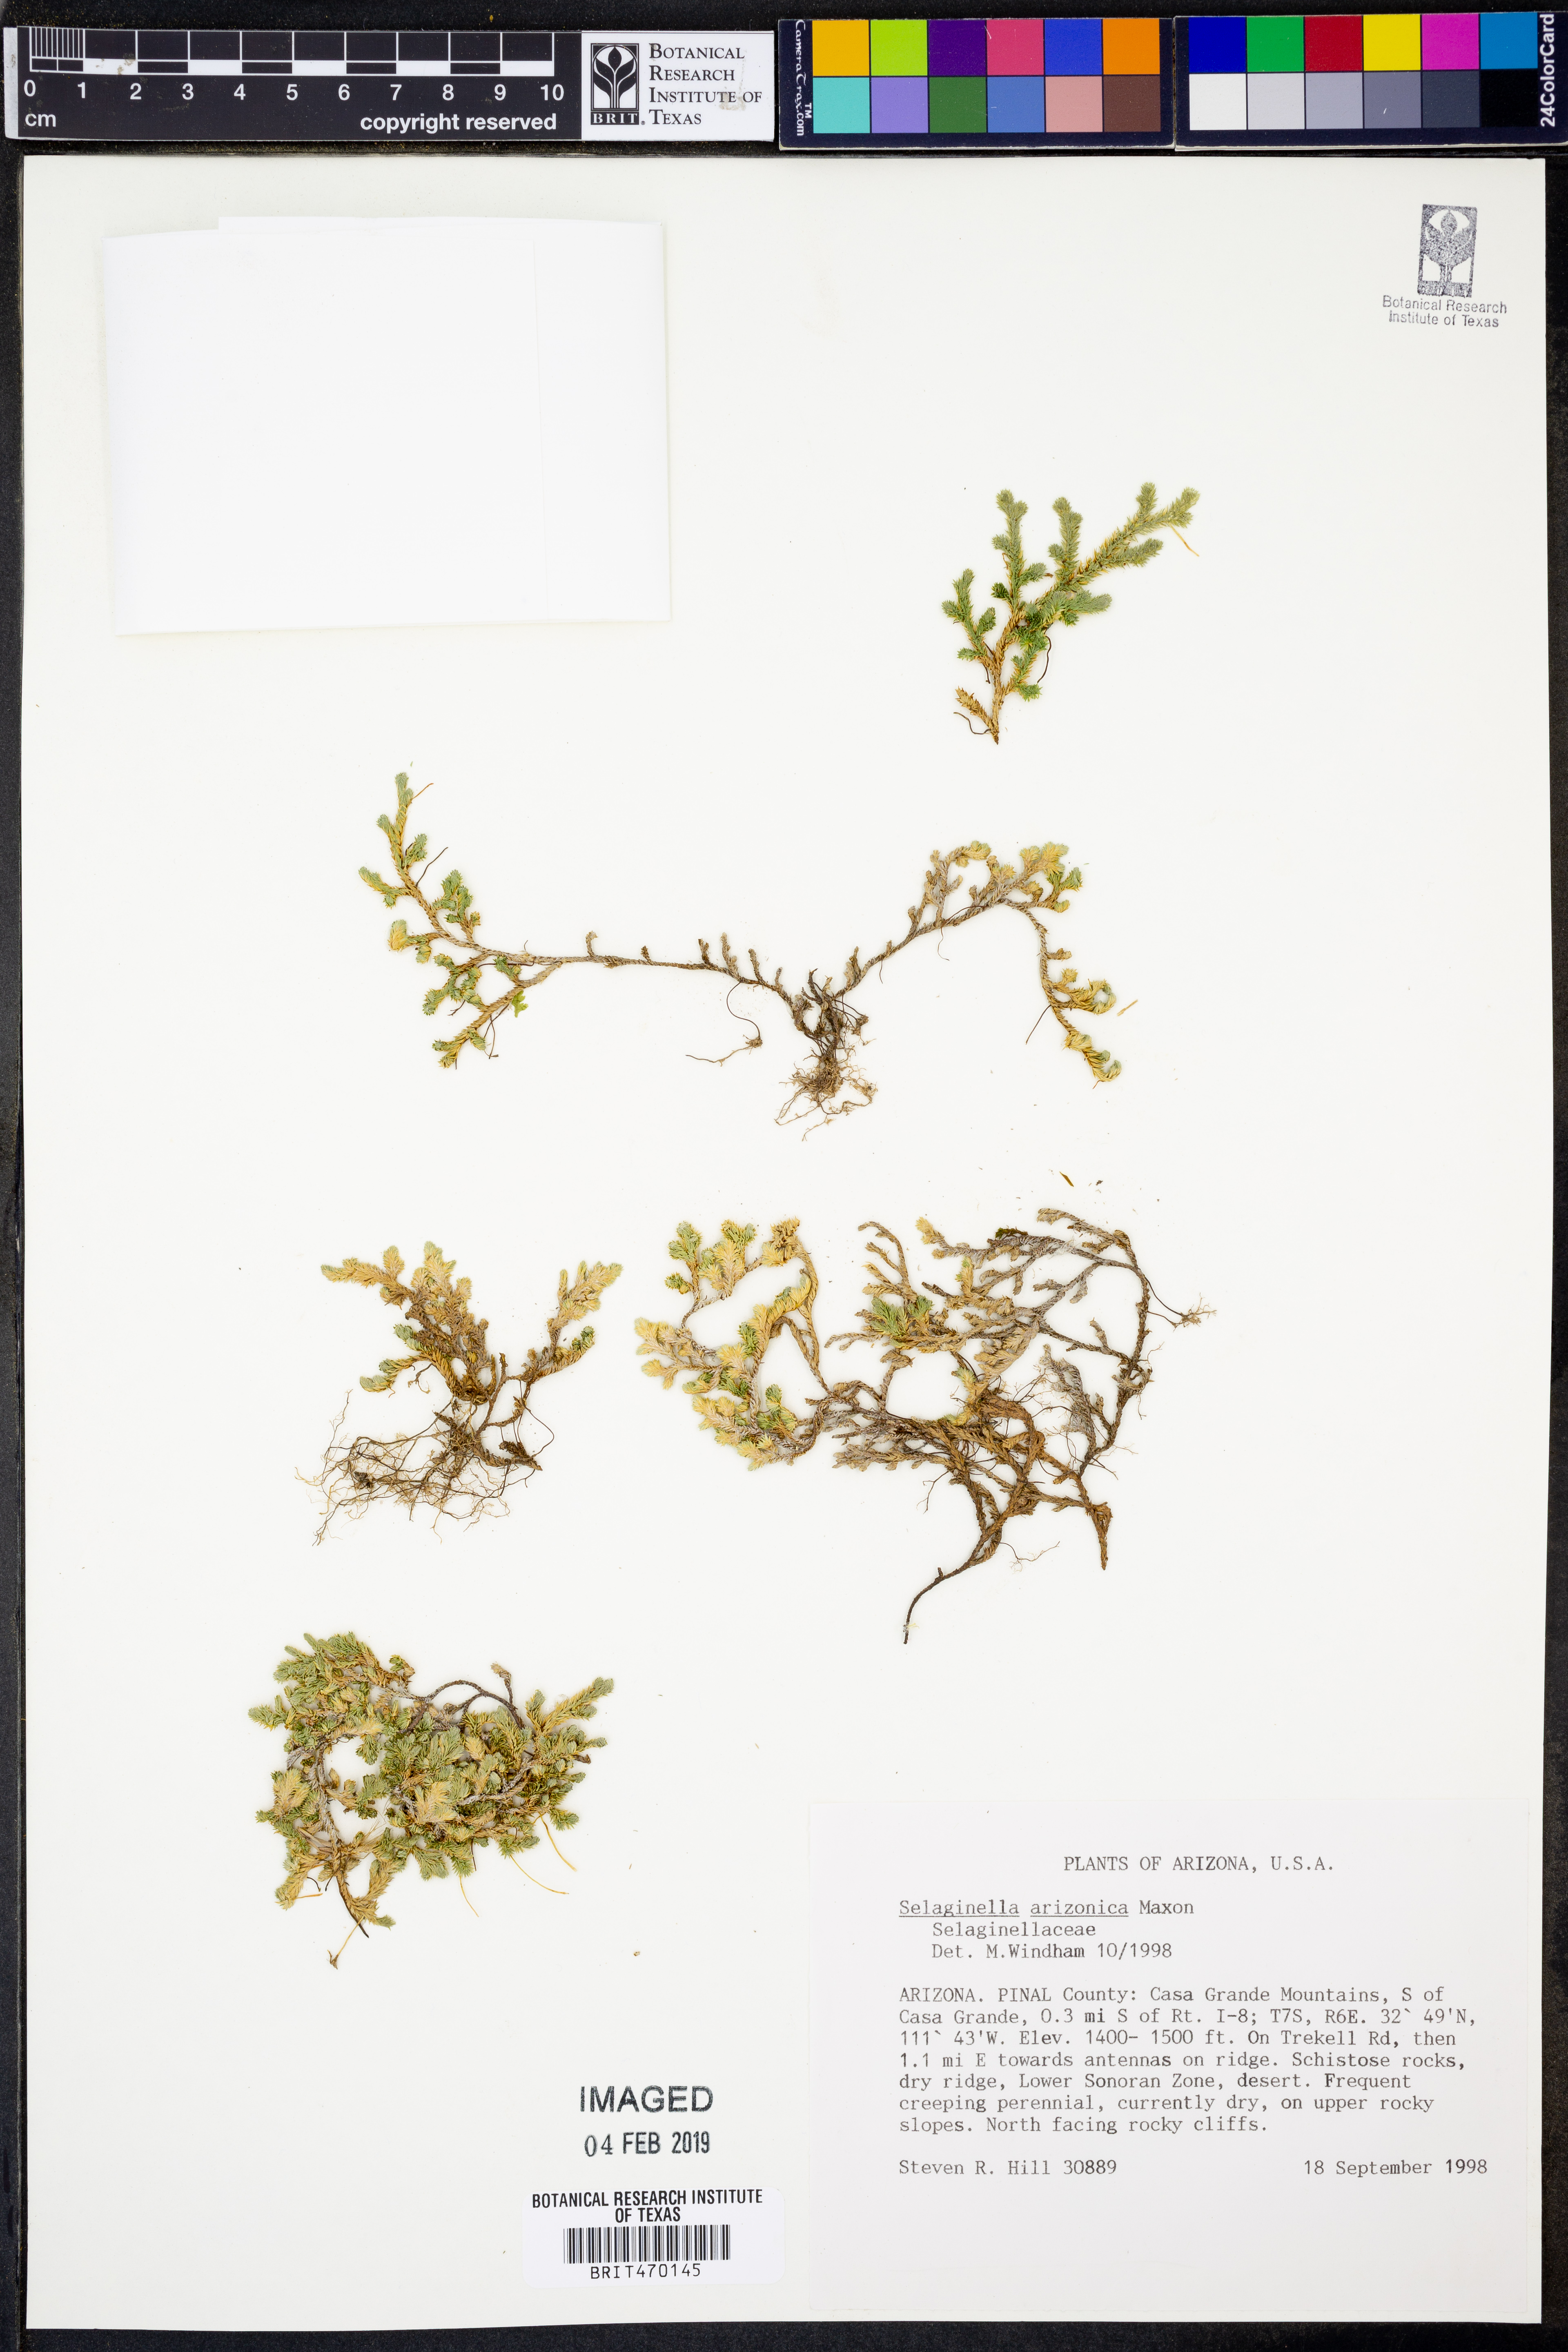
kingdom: Plantae
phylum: Tracheophyta
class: Lycopodiopsida
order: Selaginellales
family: Selaginellaceae
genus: Selaginella
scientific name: Selaginella arizonica
